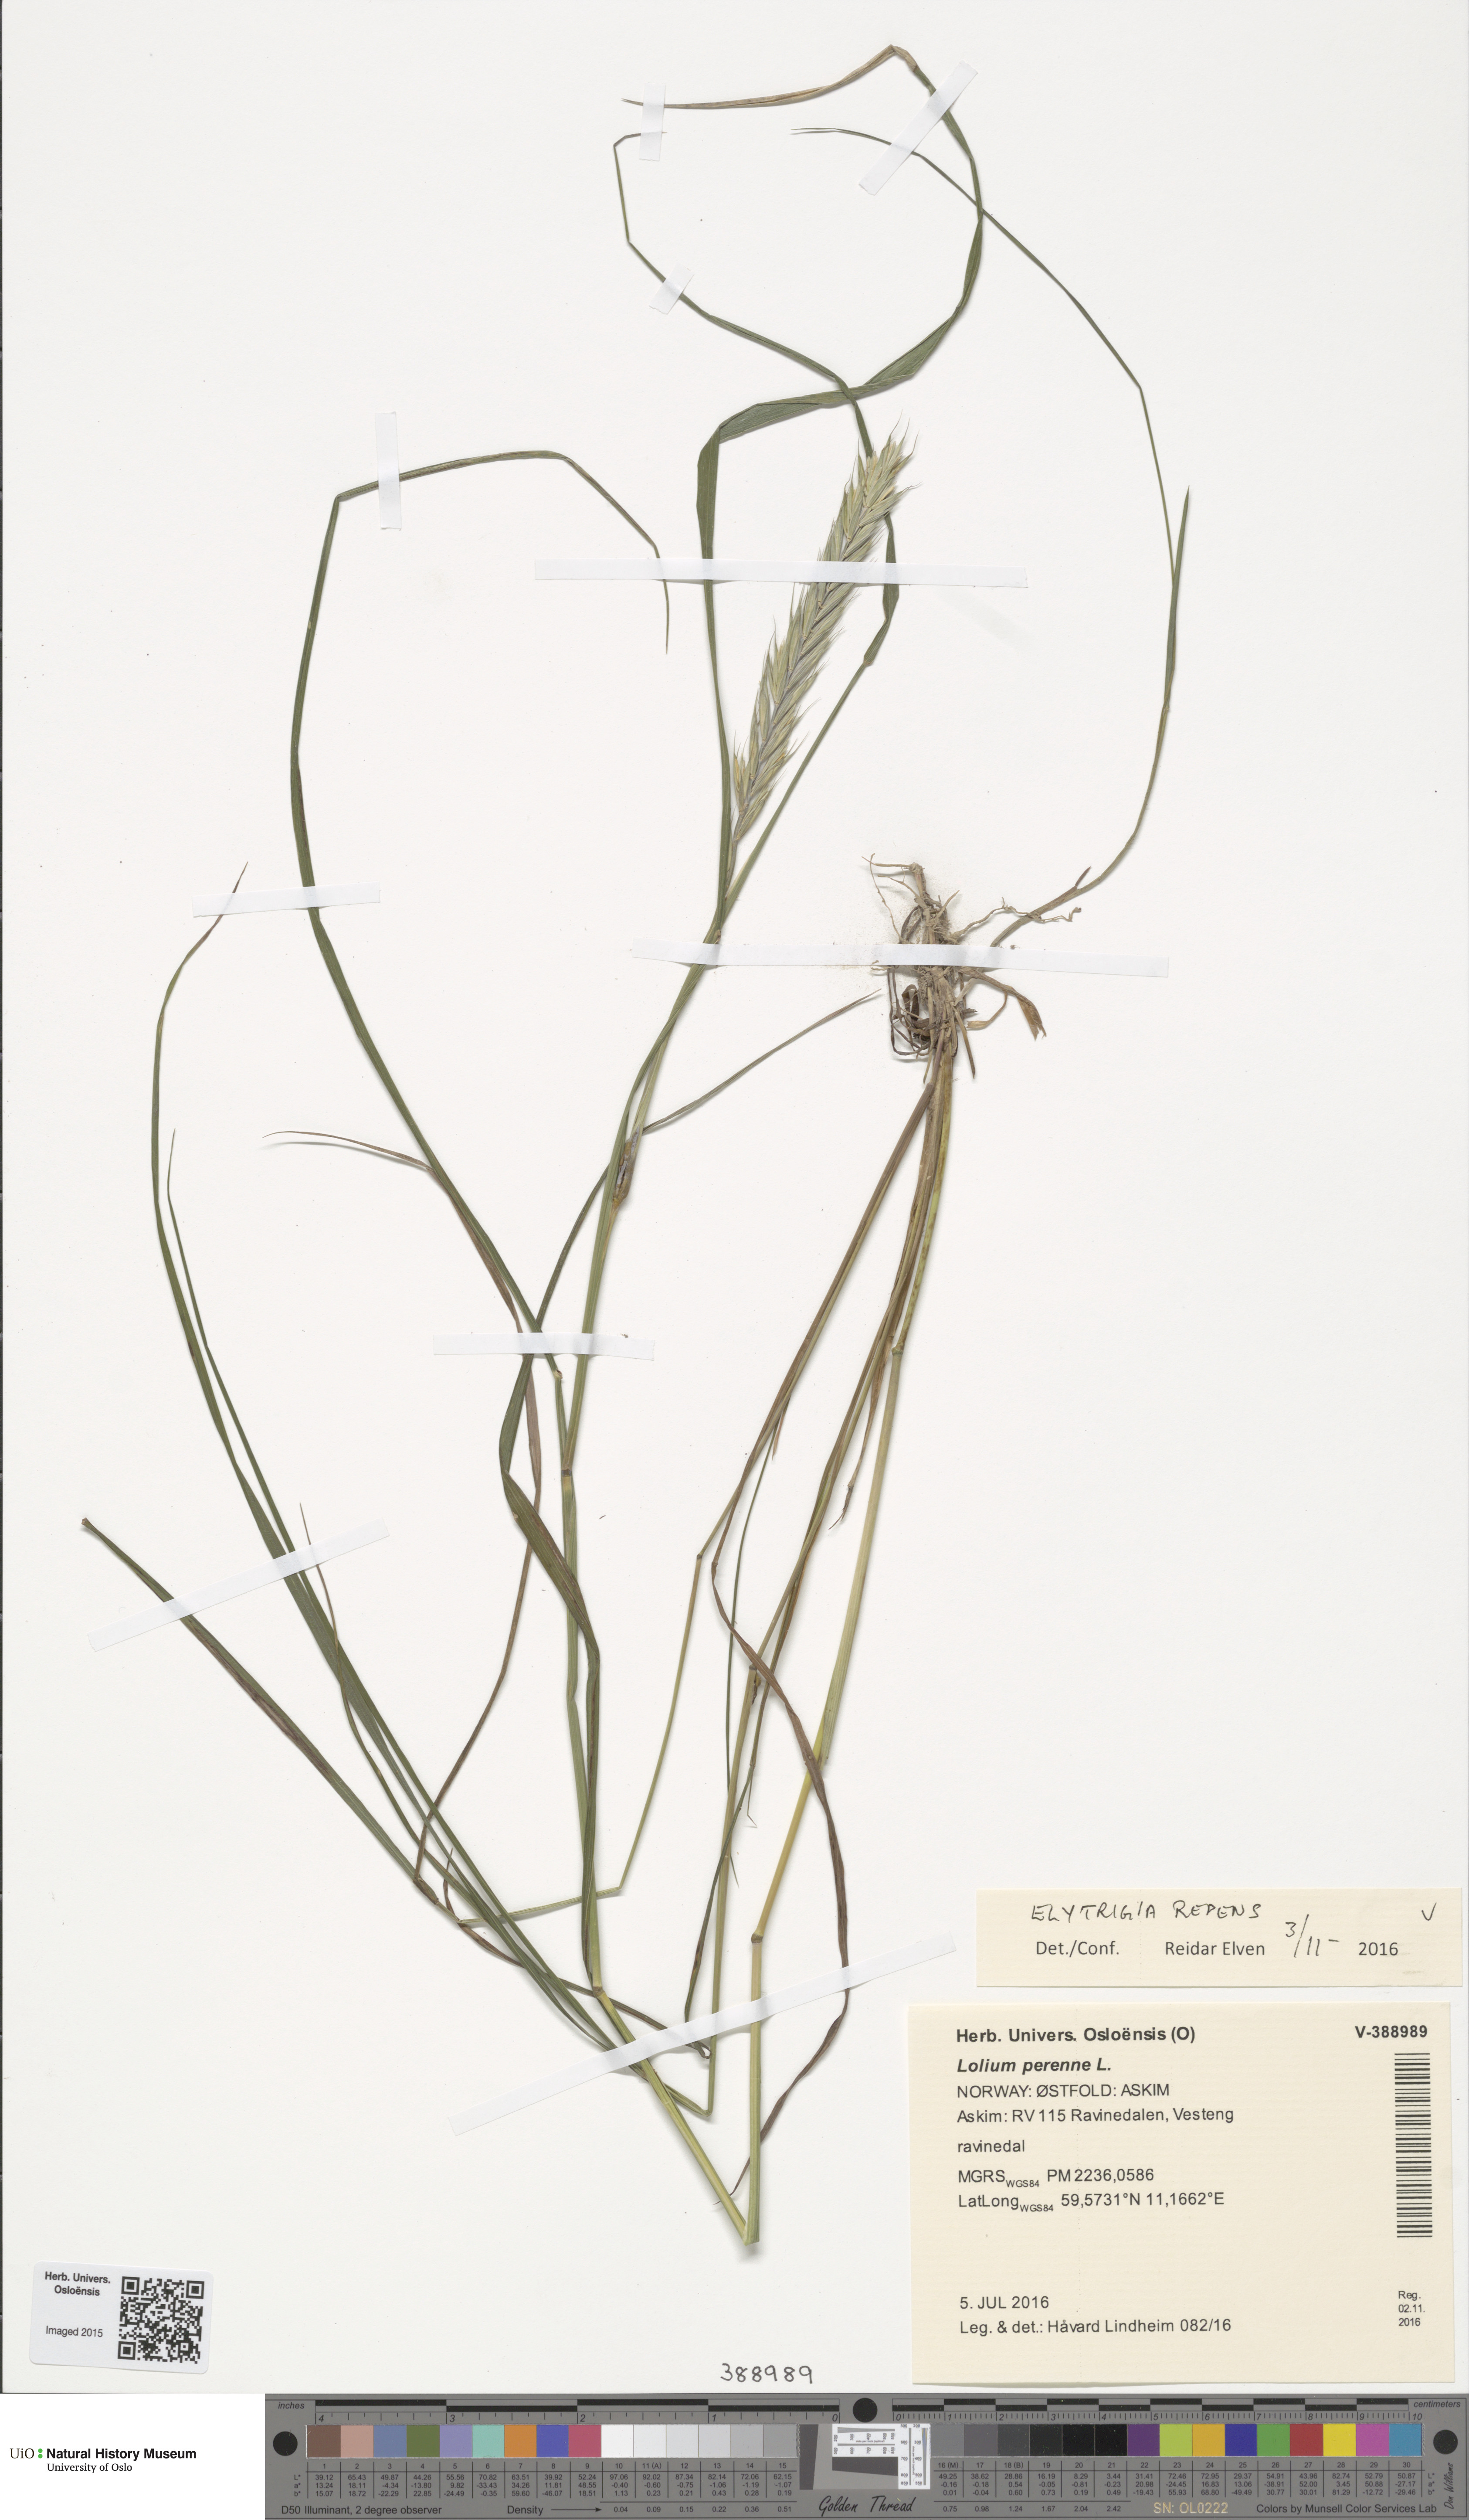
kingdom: Plantae
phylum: Tracheophyta
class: Liliopsida
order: Poales
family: Poaceae
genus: Elymus
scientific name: Elymus repens
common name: Quackgrass
